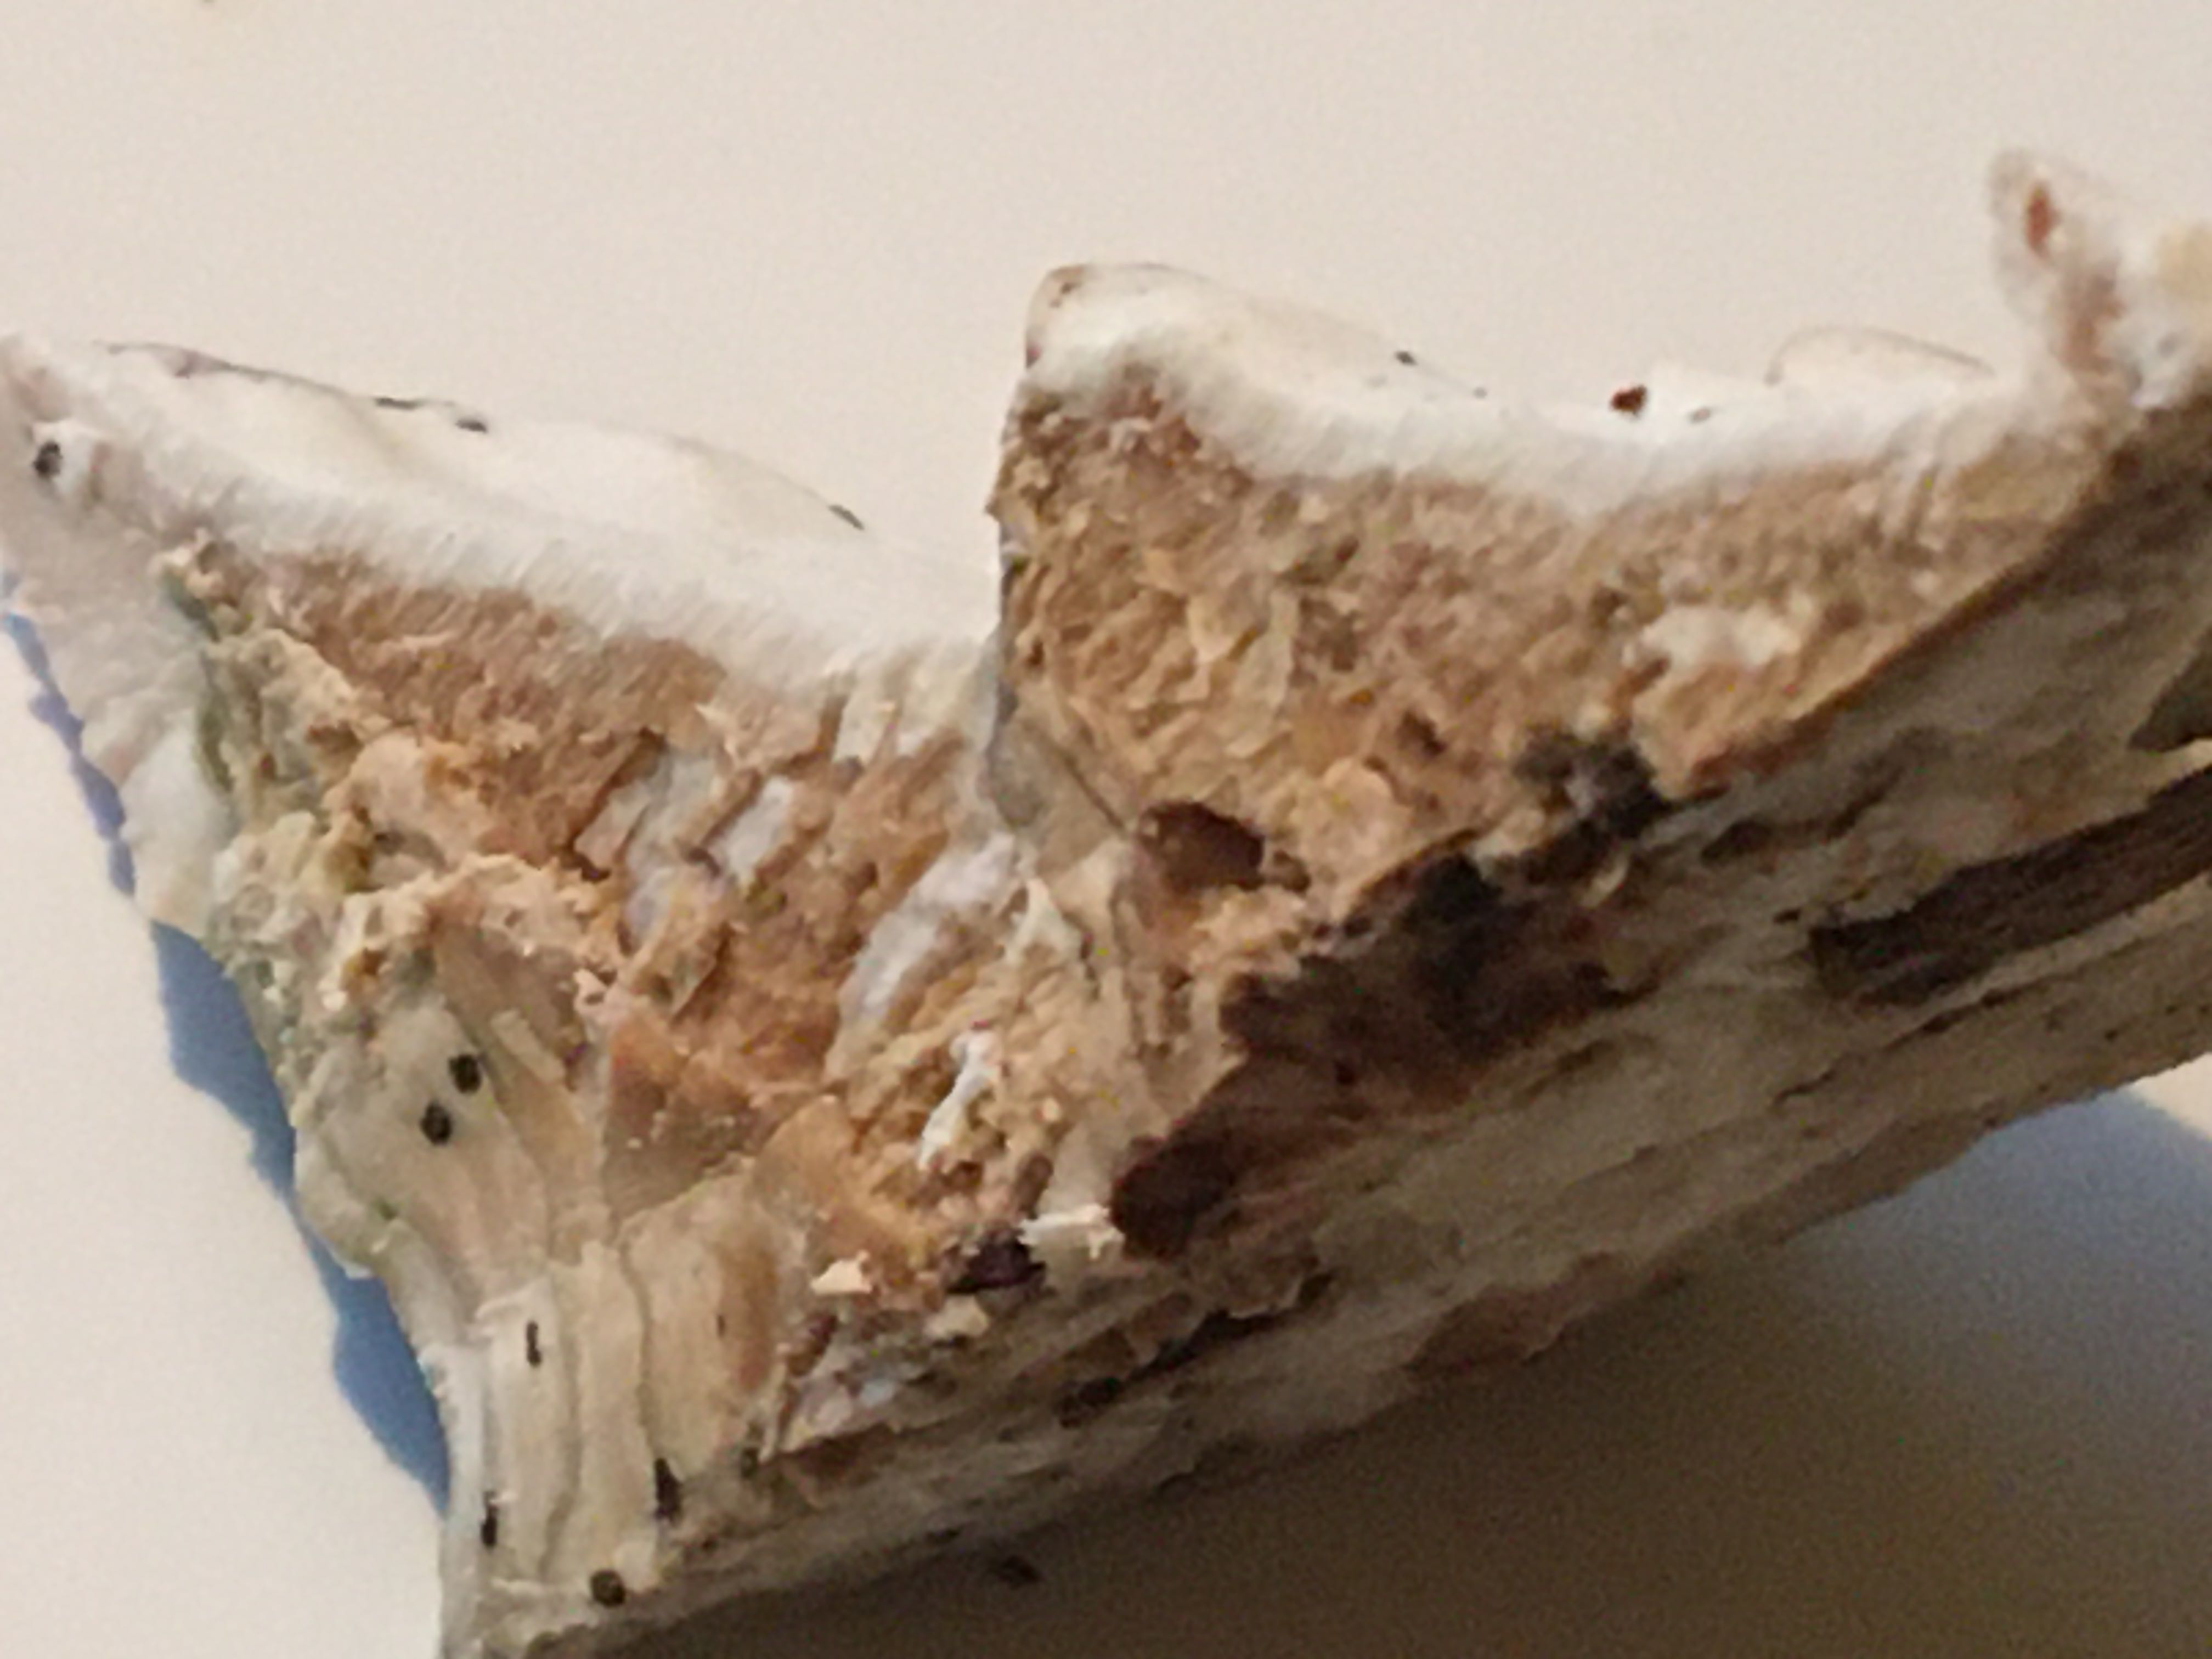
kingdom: Fungi
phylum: Basidiomycota
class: Agaricomycetes
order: Hymenochaetales
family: Oxyporaceae
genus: Oxyporus
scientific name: Oxyporus populinus
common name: sammenvokset trylleporesvamp
